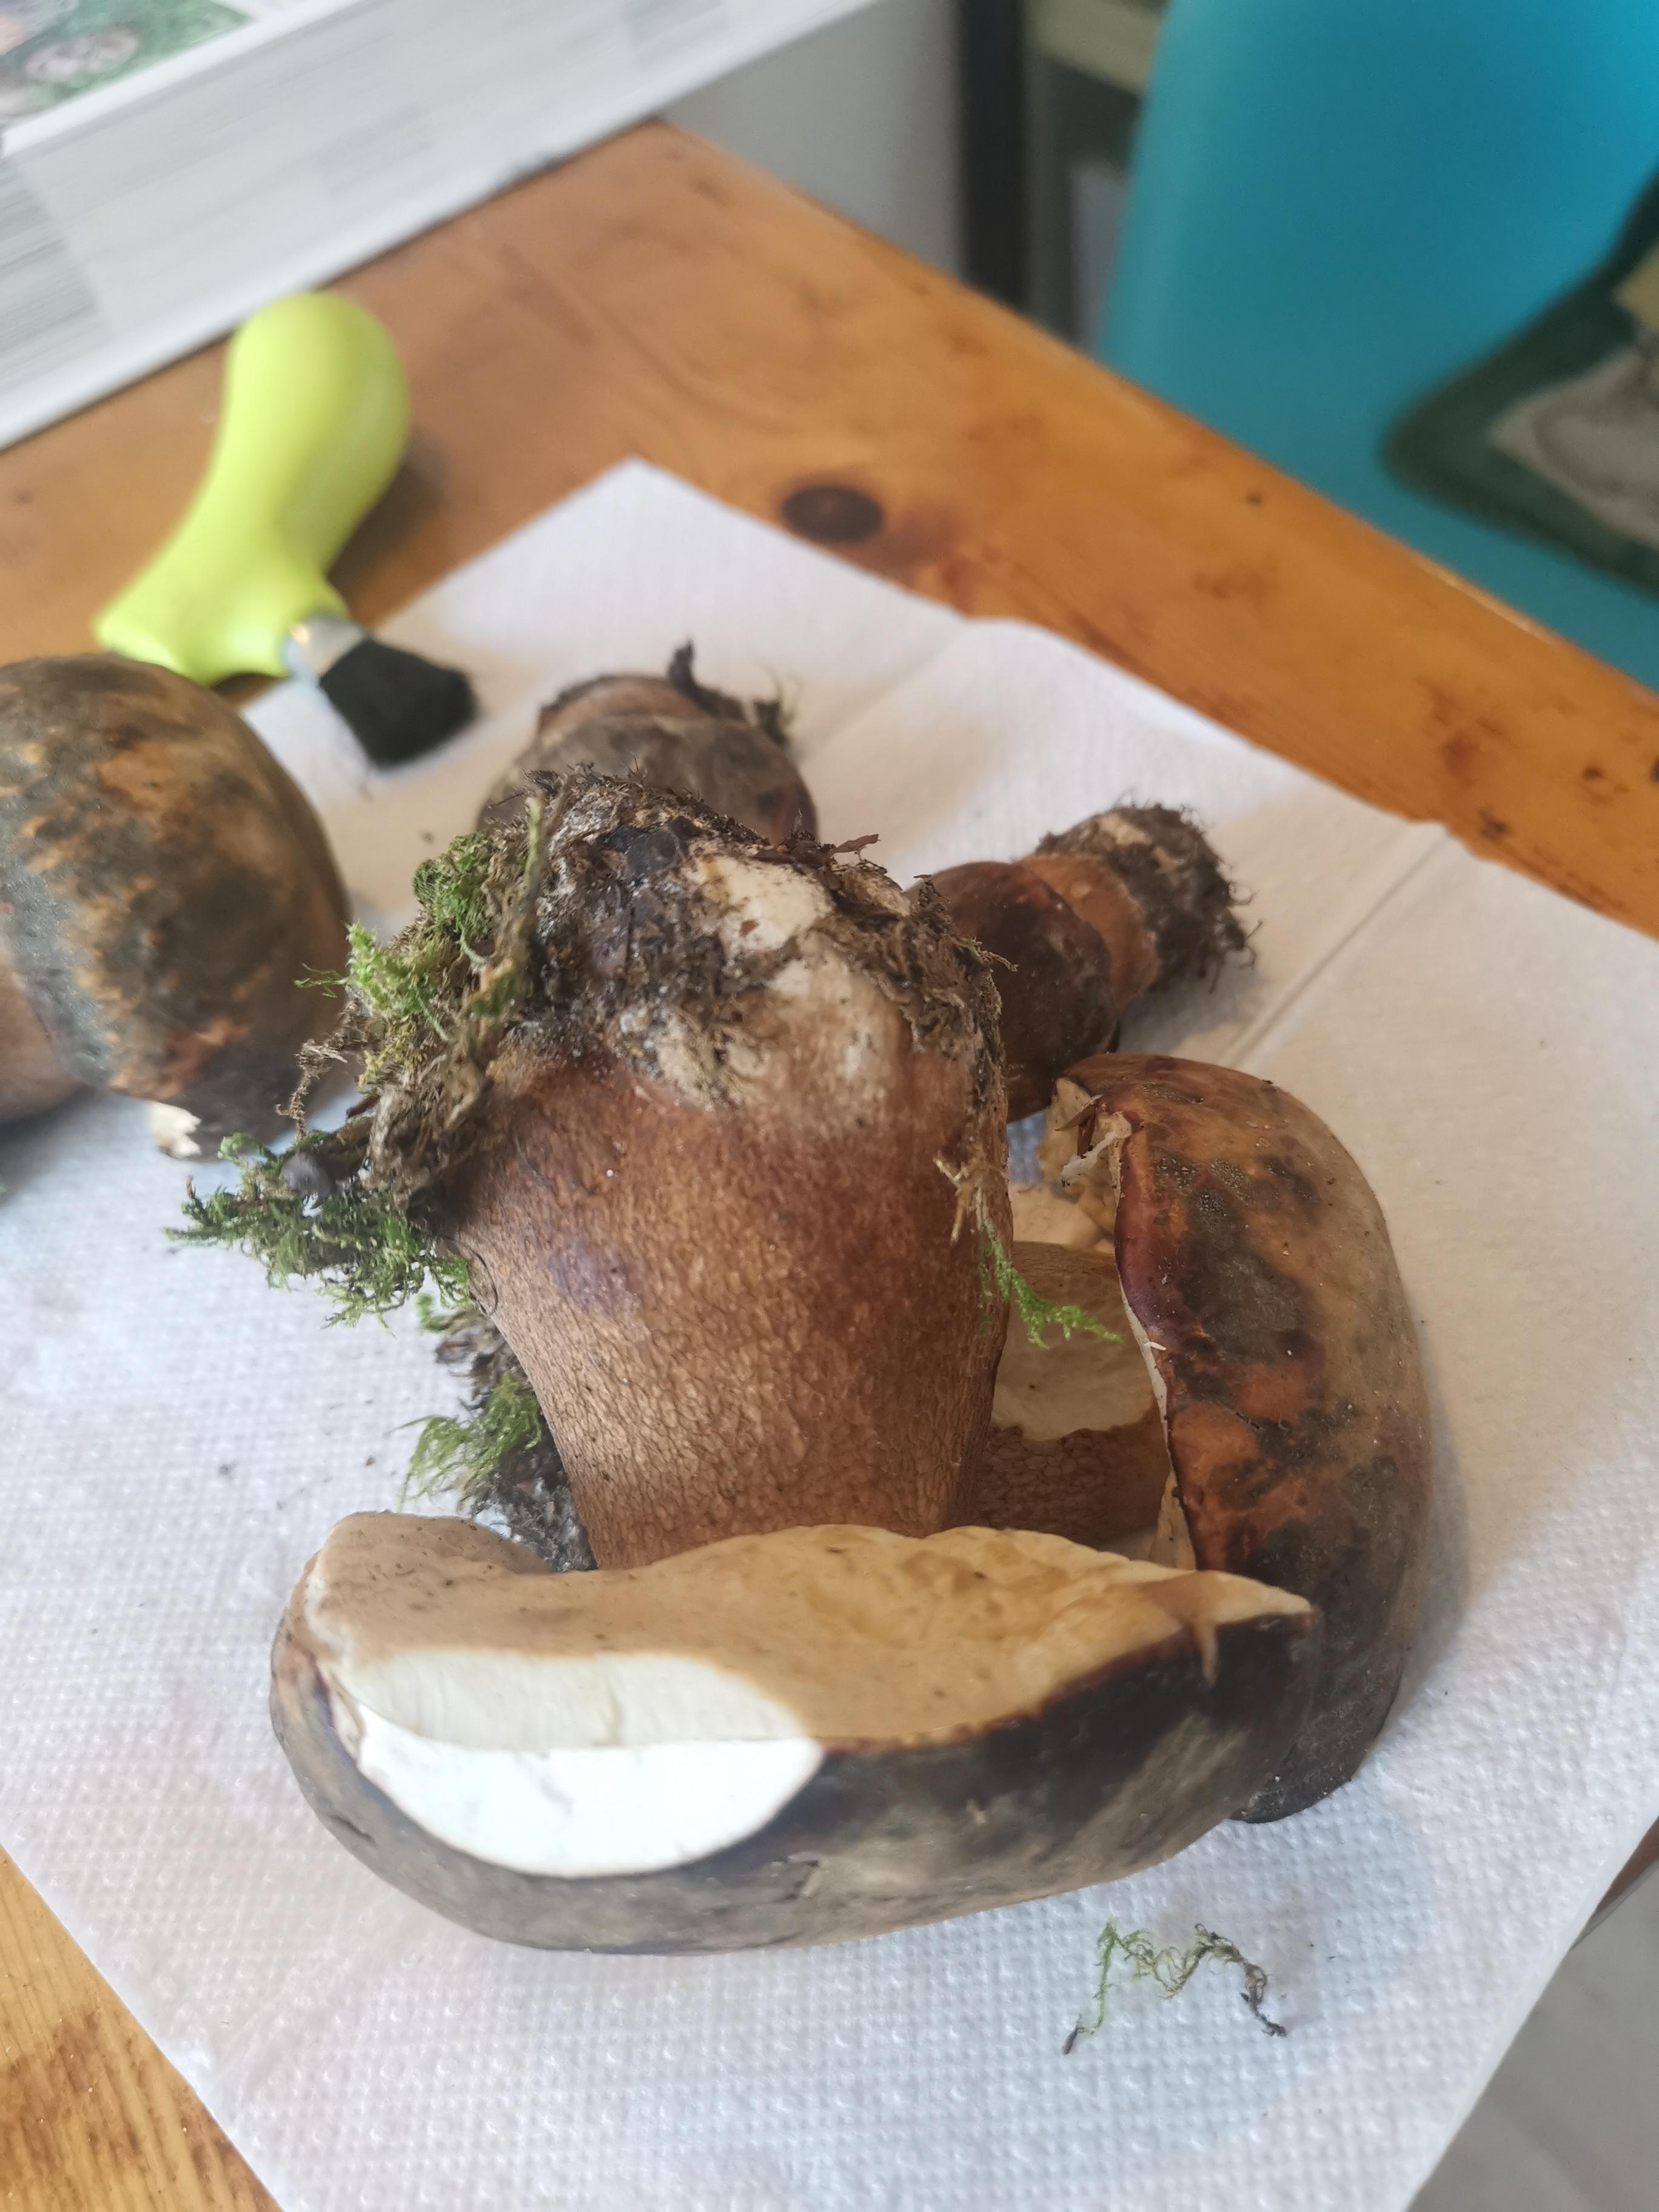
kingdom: Fungi
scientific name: Fungi
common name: bronze-rørhat
